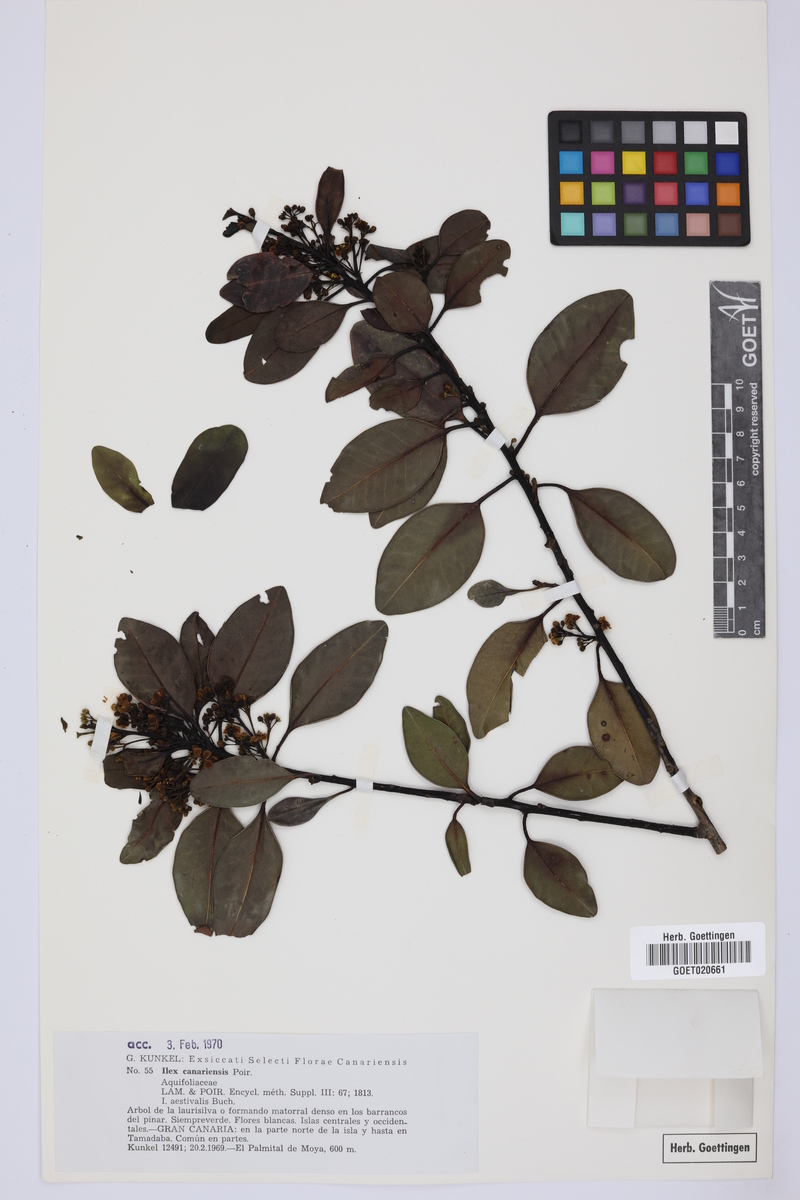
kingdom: Plantae
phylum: Tracheophyta
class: Magnoliopsida
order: Aquifoliales
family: Aquifoliaceae
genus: Ilex
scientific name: Ilex canariensis
